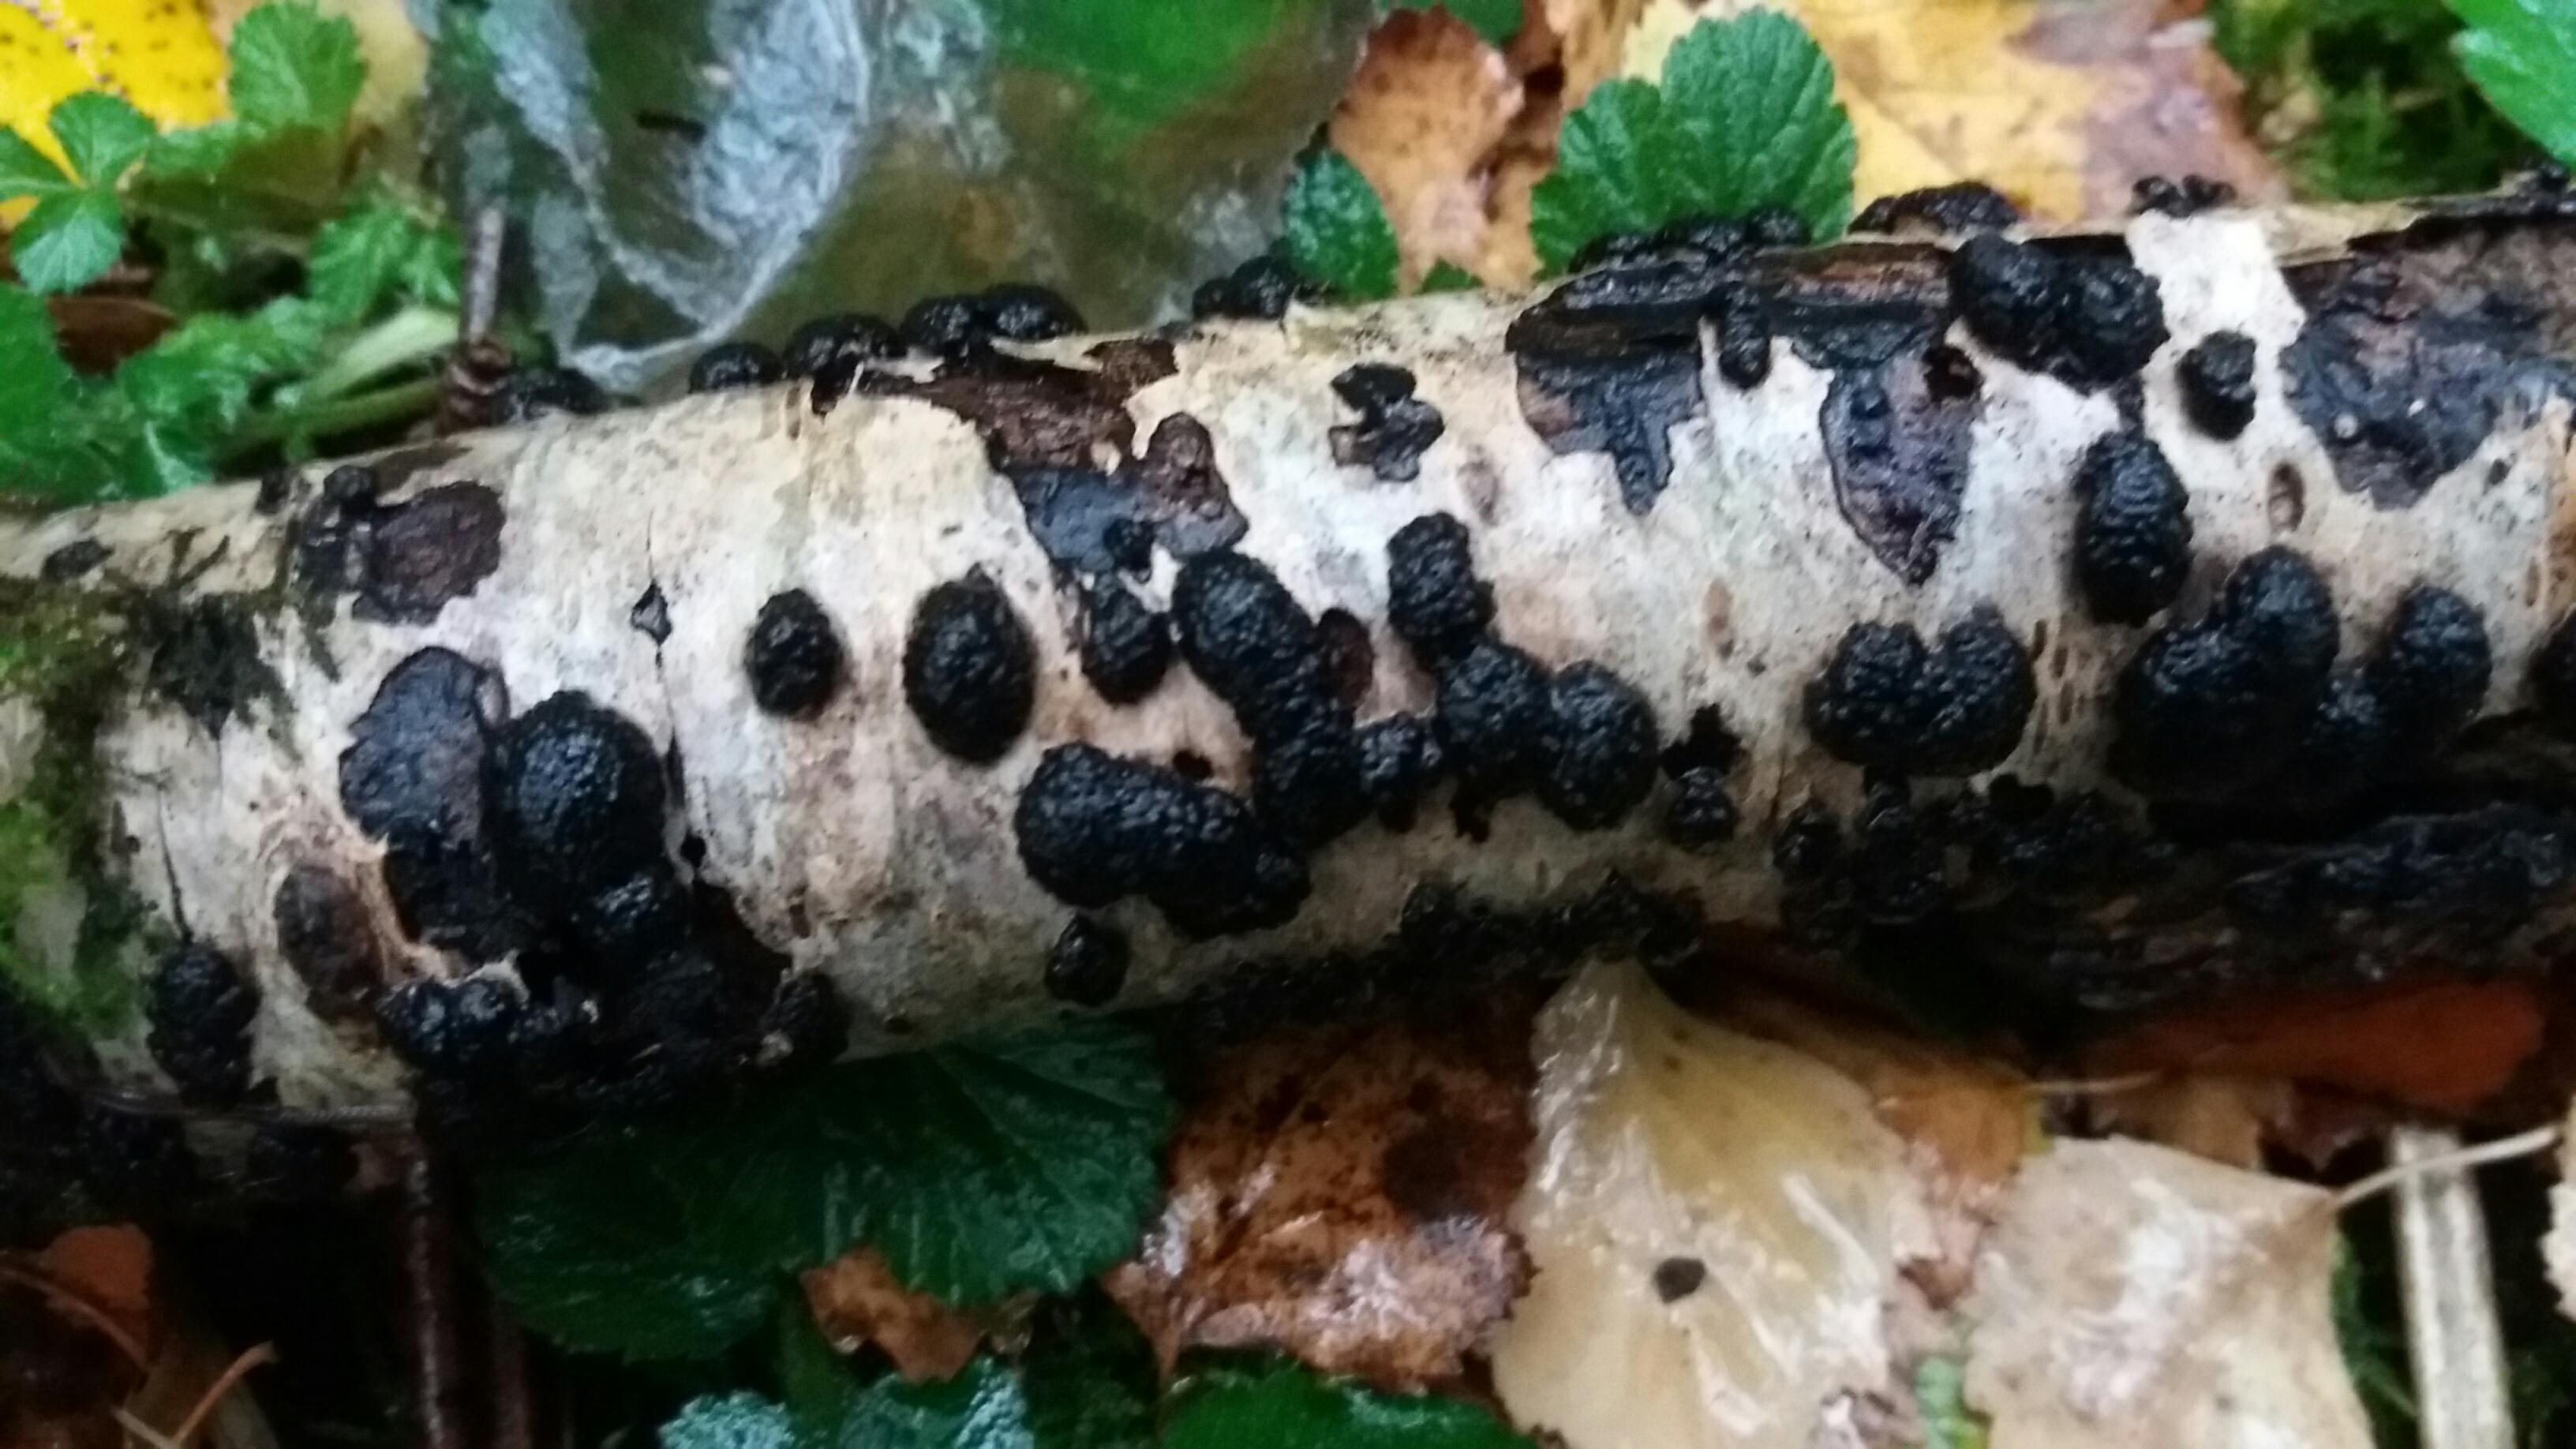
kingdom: Fungi
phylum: Ascomycota
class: Sordariomycetes
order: Xylariales
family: Hypoxylaceae
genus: Jackrogersella
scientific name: Jackrogersella multiformis
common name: foranderlig kulbær
